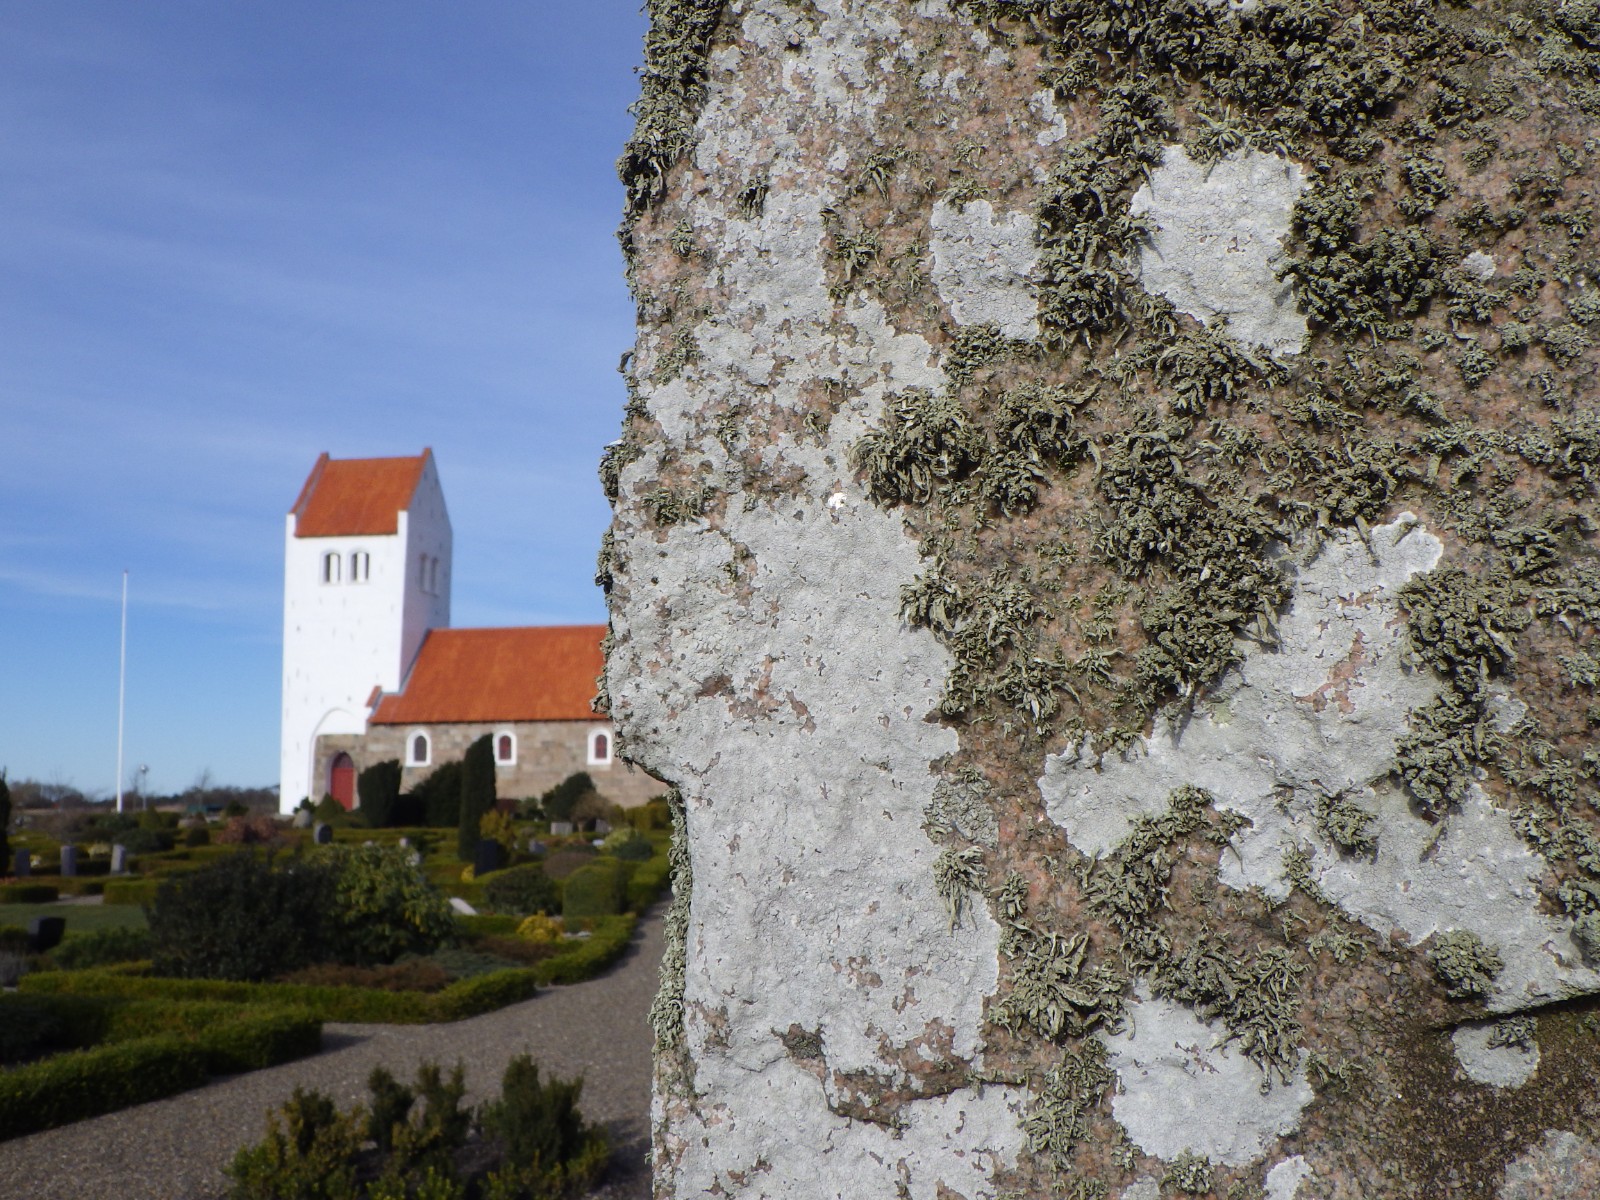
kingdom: Fungi
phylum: Ascomycota
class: Lecanoromycetes
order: Lecanorales
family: Ramalinaceae
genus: Ramalina
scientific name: Ramalina siliquosa
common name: klippe-grenlav
